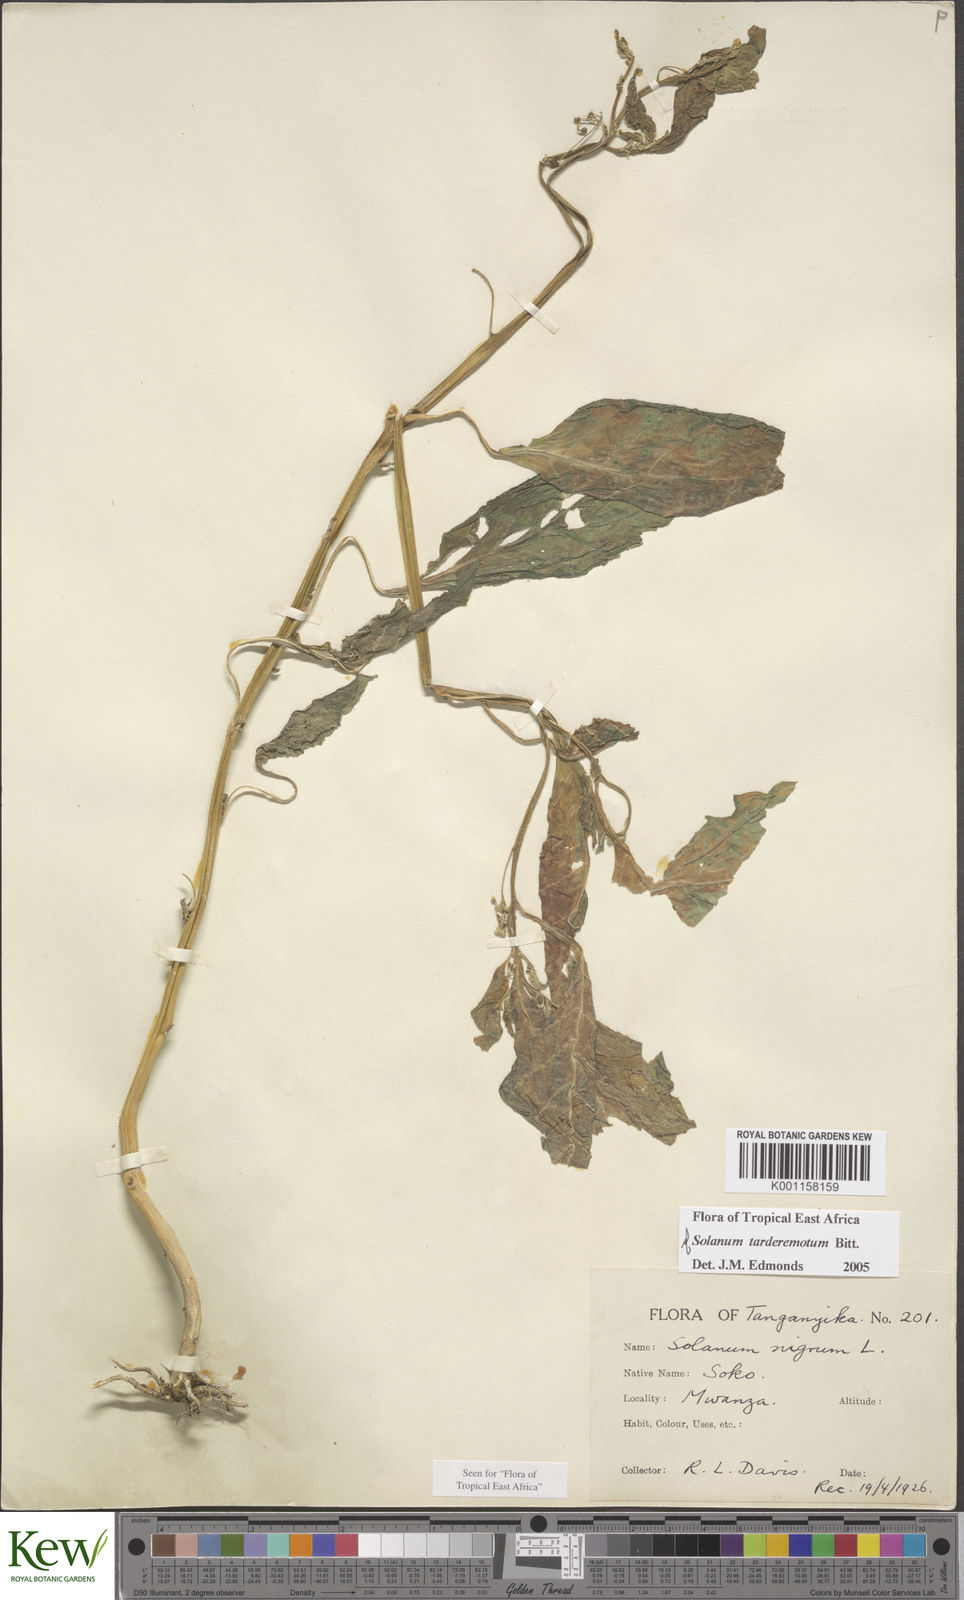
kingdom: Plantae
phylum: Tracheophyta
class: Magnoliopsida
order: Solanales
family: Solanaceae
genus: Solanum
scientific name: Solanum tarderemotum
